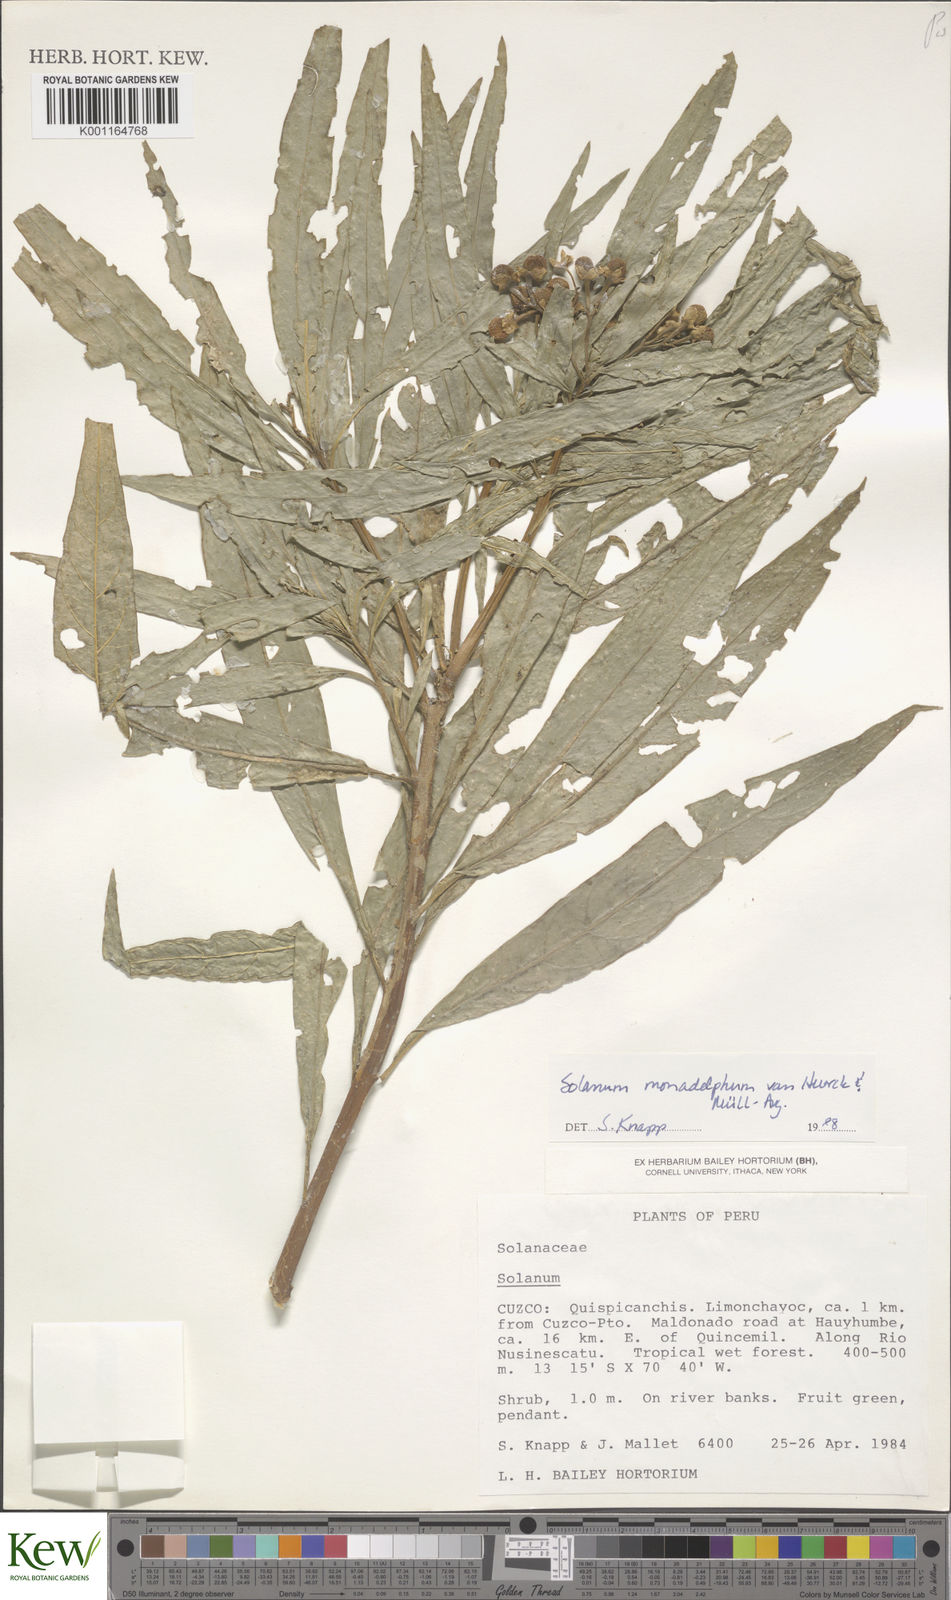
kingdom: Plantae
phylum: Tracheophyta
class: Magnoliopsida
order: Solanales
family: Solanaceae
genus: Solanum
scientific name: Solanum monadelphum
